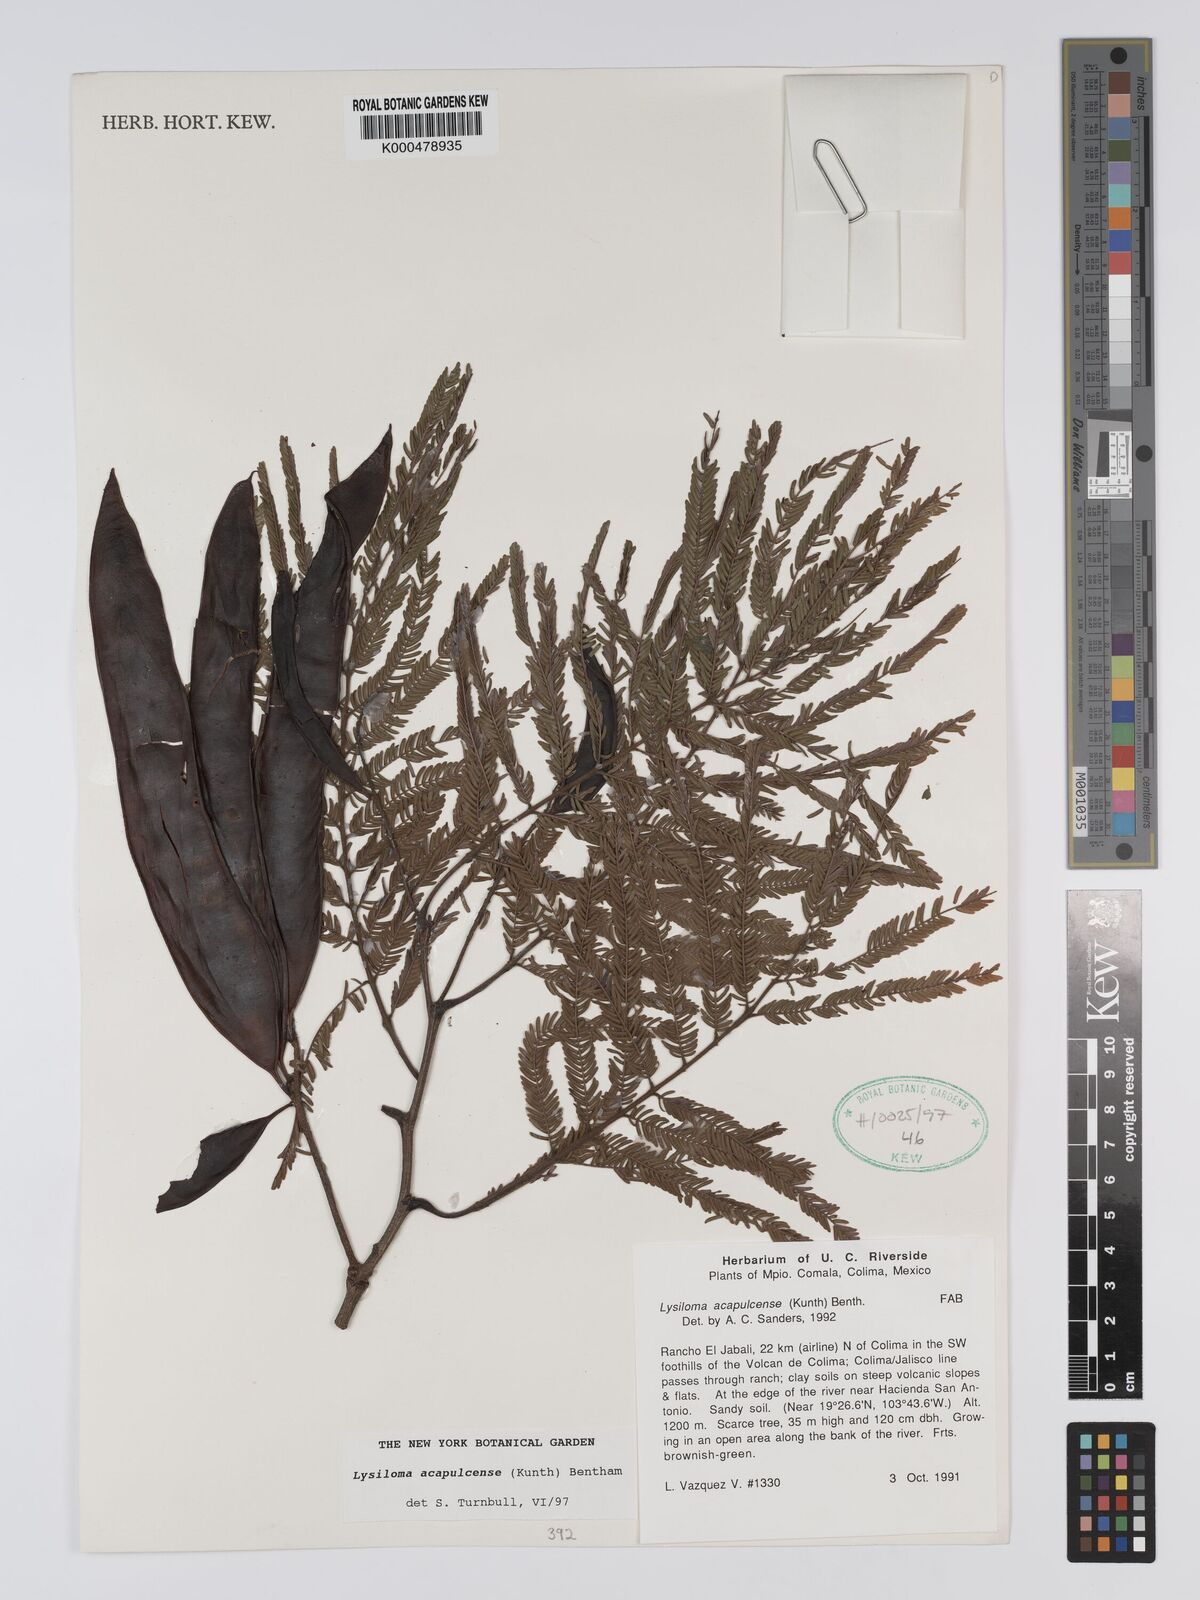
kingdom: Plantae
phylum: Tracheophyta
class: Magnoliopsida
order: Fabales
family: Fabaceae
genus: Lysiloma
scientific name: Lysiloma
